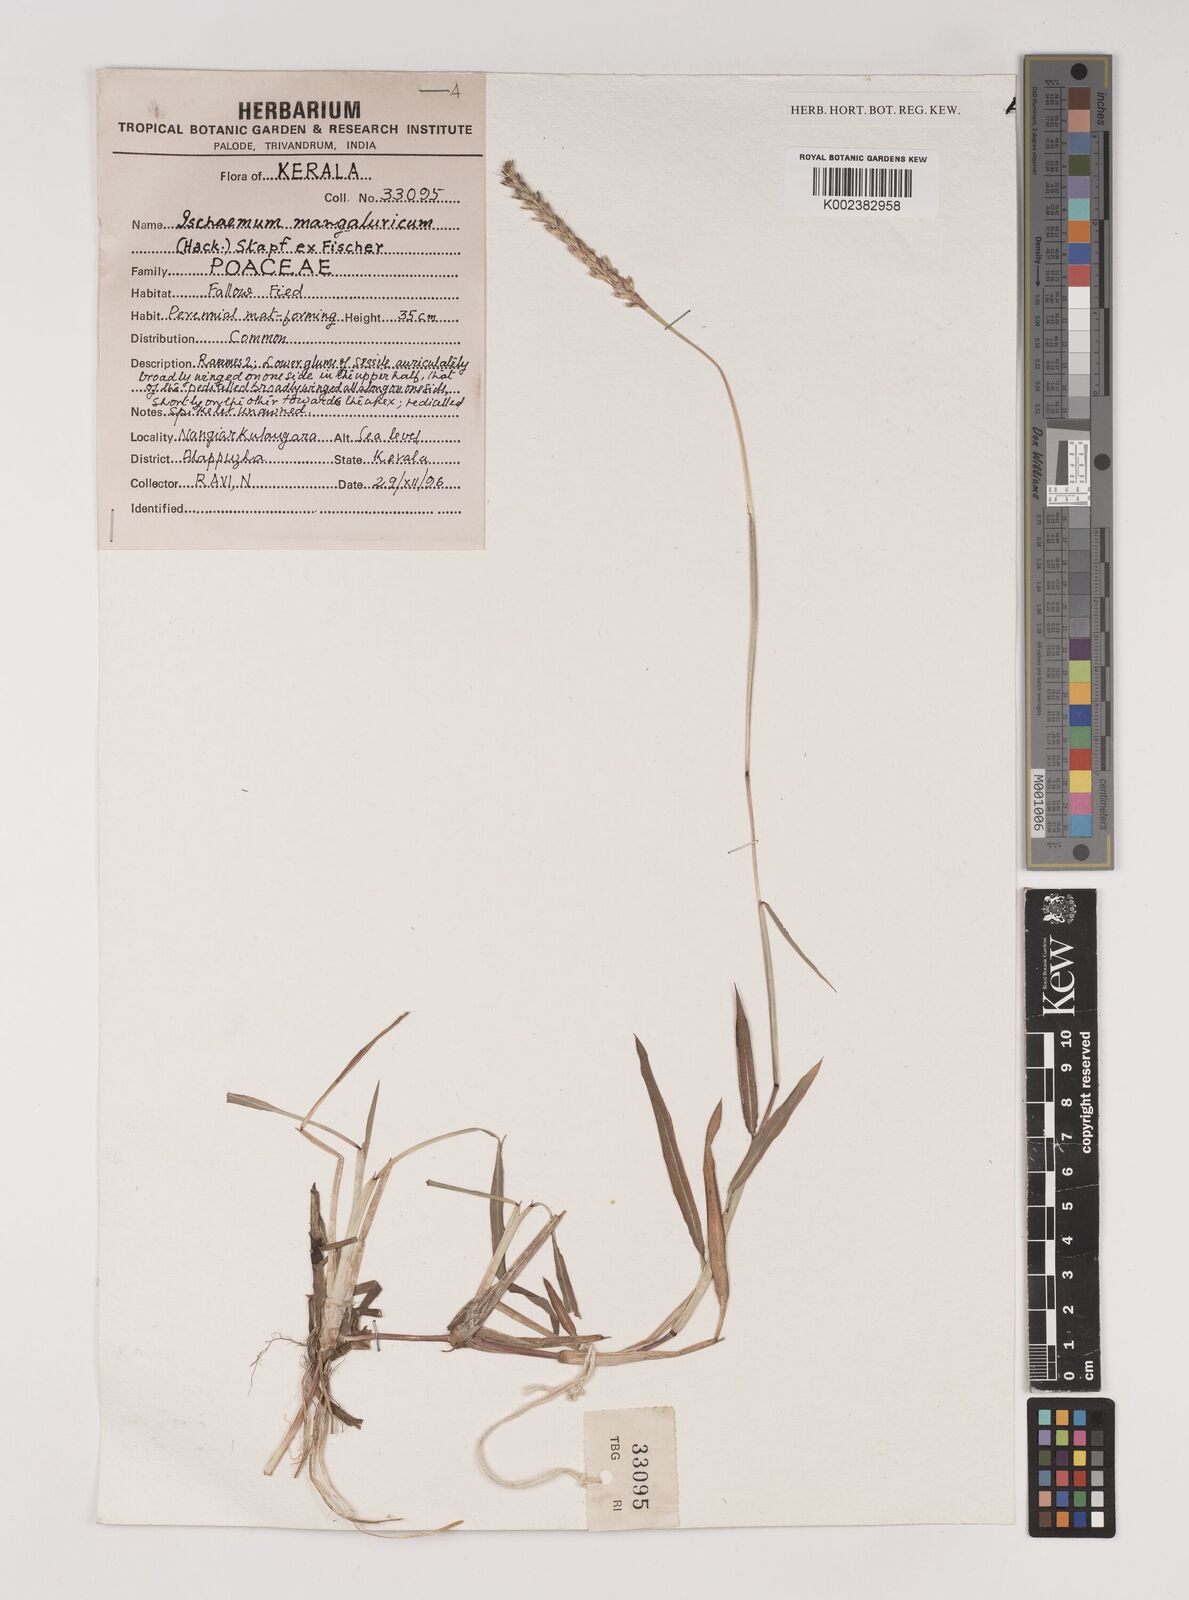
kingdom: Plantae
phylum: Tracheophyta
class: Liliopsida
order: Poales
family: Poaceae
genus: Ischaemum
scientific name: Ischaemum barbatum
